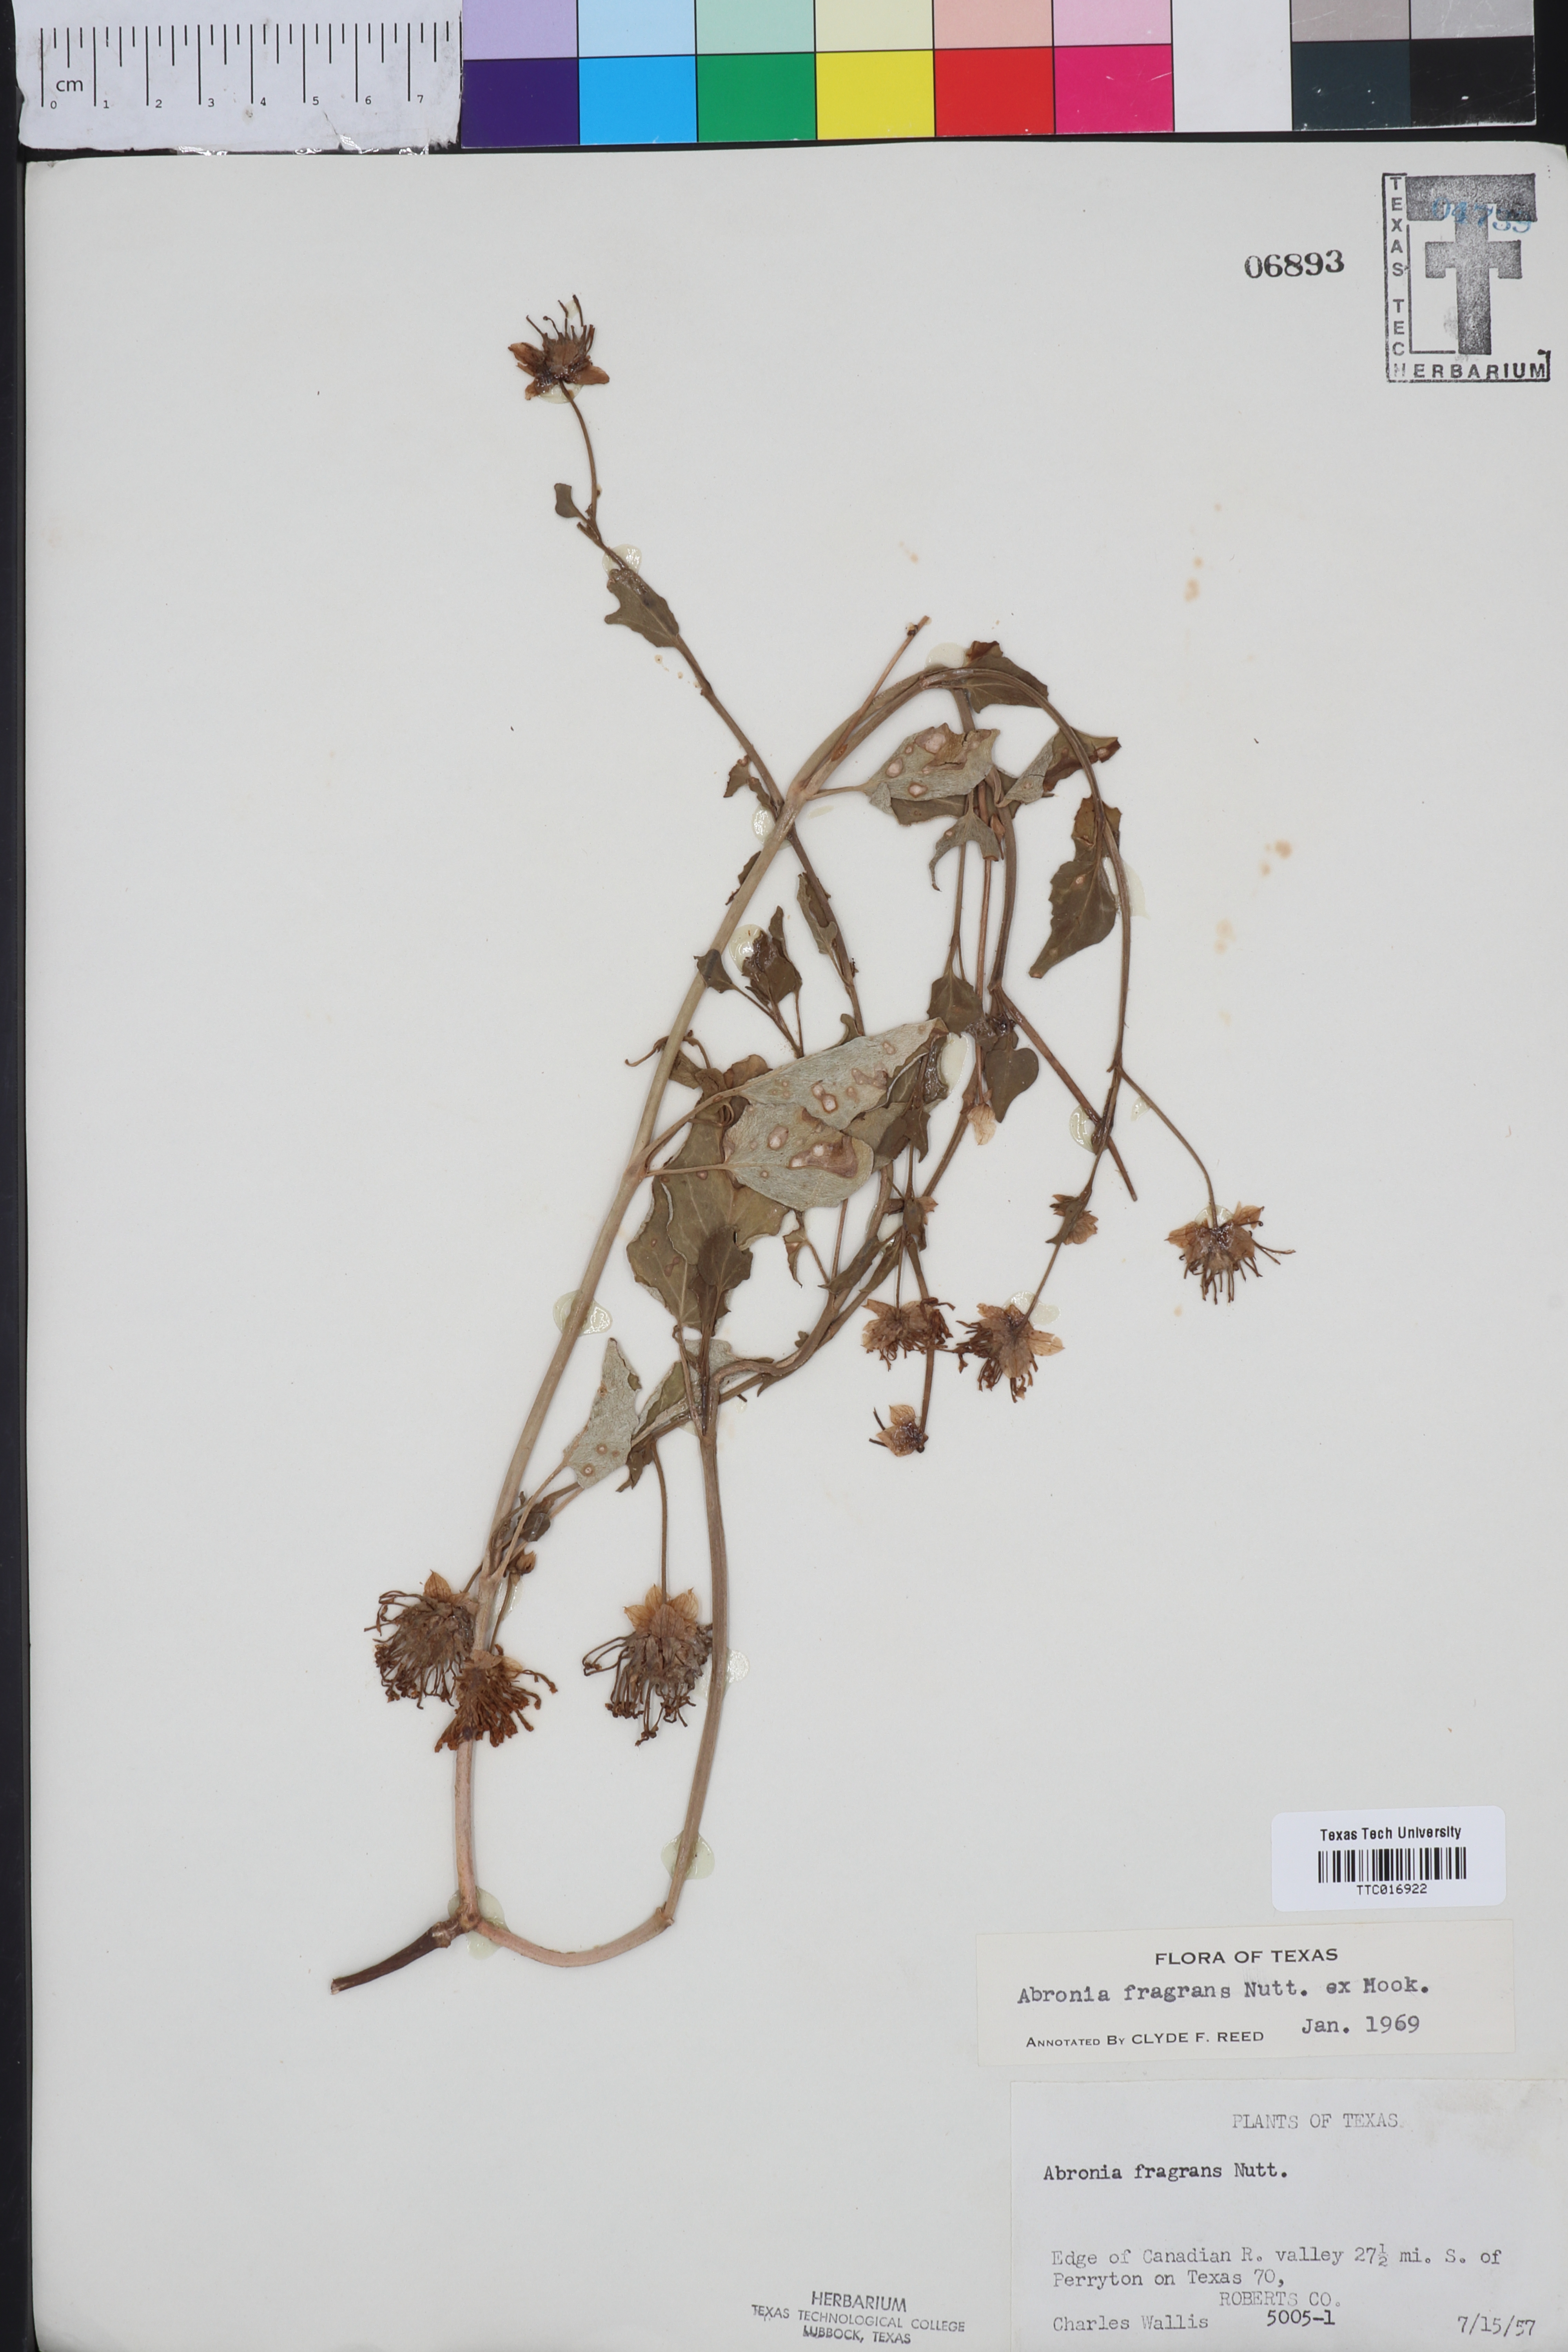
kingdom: Plantae
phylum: Tracheophyta
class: Magnoliopsida
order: Caryophyllales
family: Nyctaginaceae
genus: Abronia
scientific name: Abronia fragrans
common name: Fragrant sand-verbena
